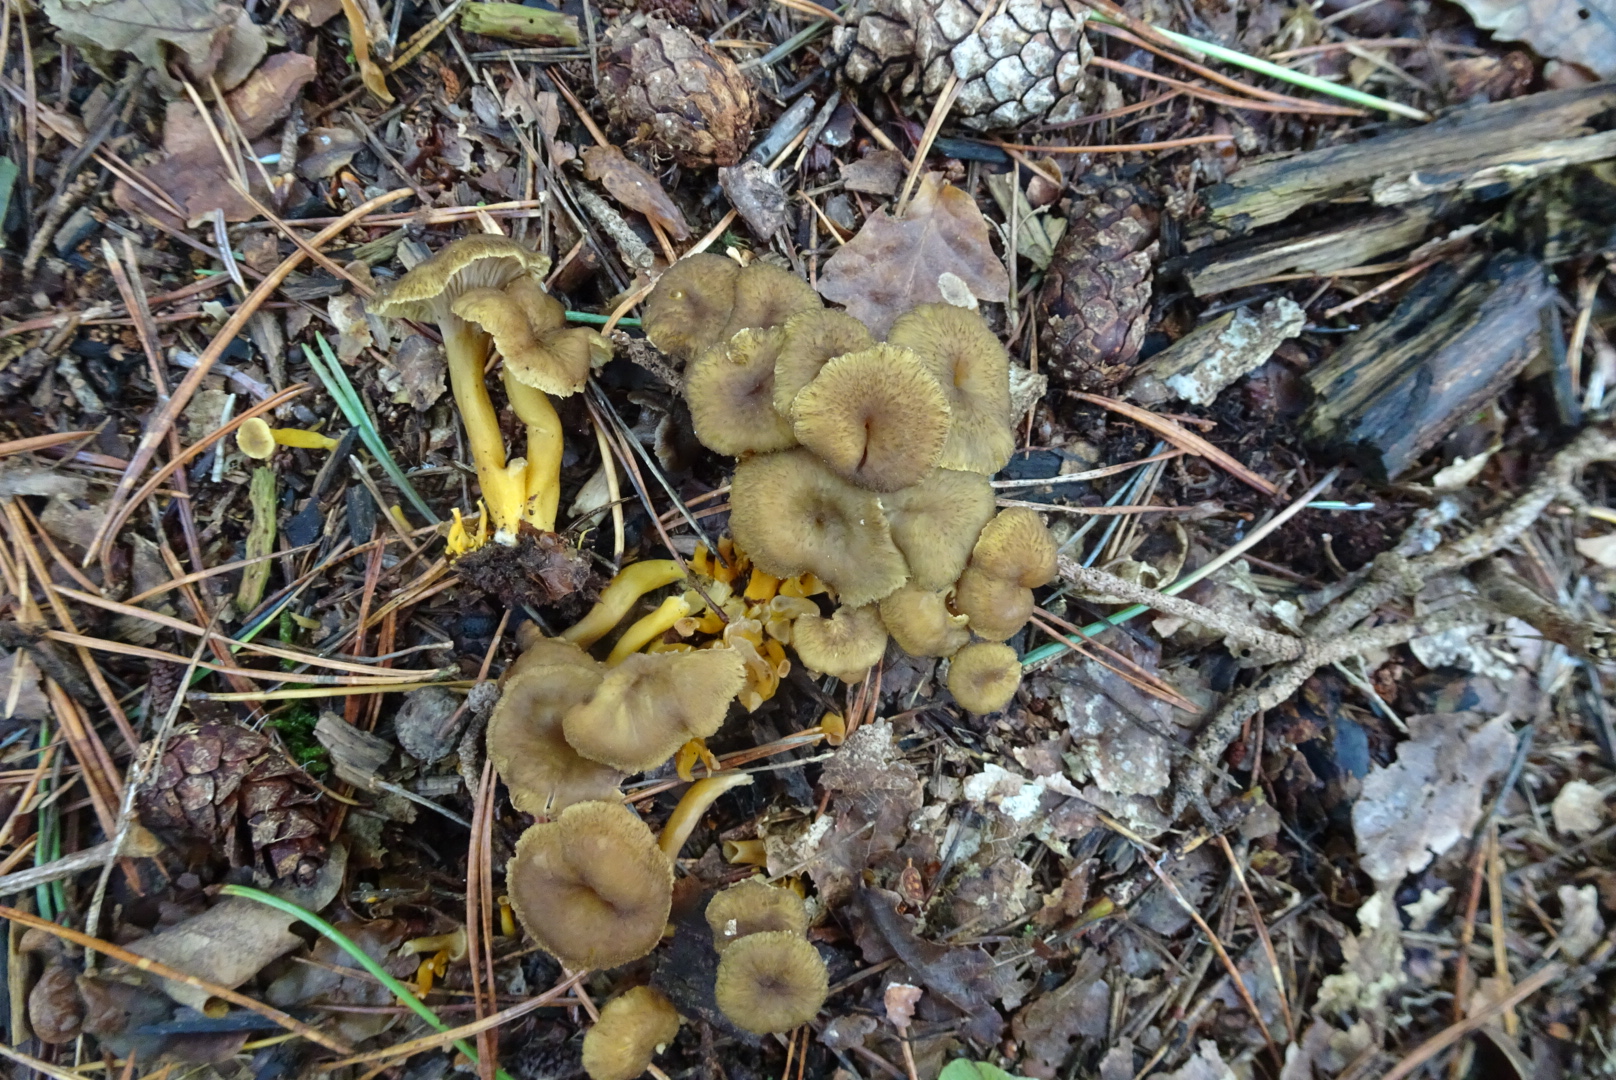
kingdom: Fungi
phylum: Basidiomycota
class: Agaricomycetes
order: Cantharellales
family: Hydnaceae
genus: Craterellus
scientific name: Craterellus tubaeformis
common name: tragt-kantarel
